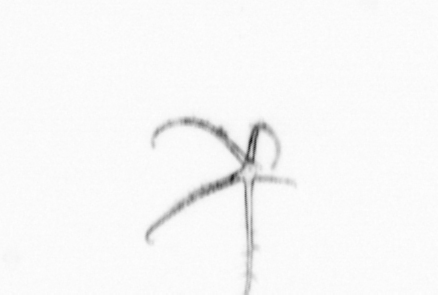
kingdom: Animalia
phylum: Echinodermata
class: Crinoidea
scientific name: Crinoidea
